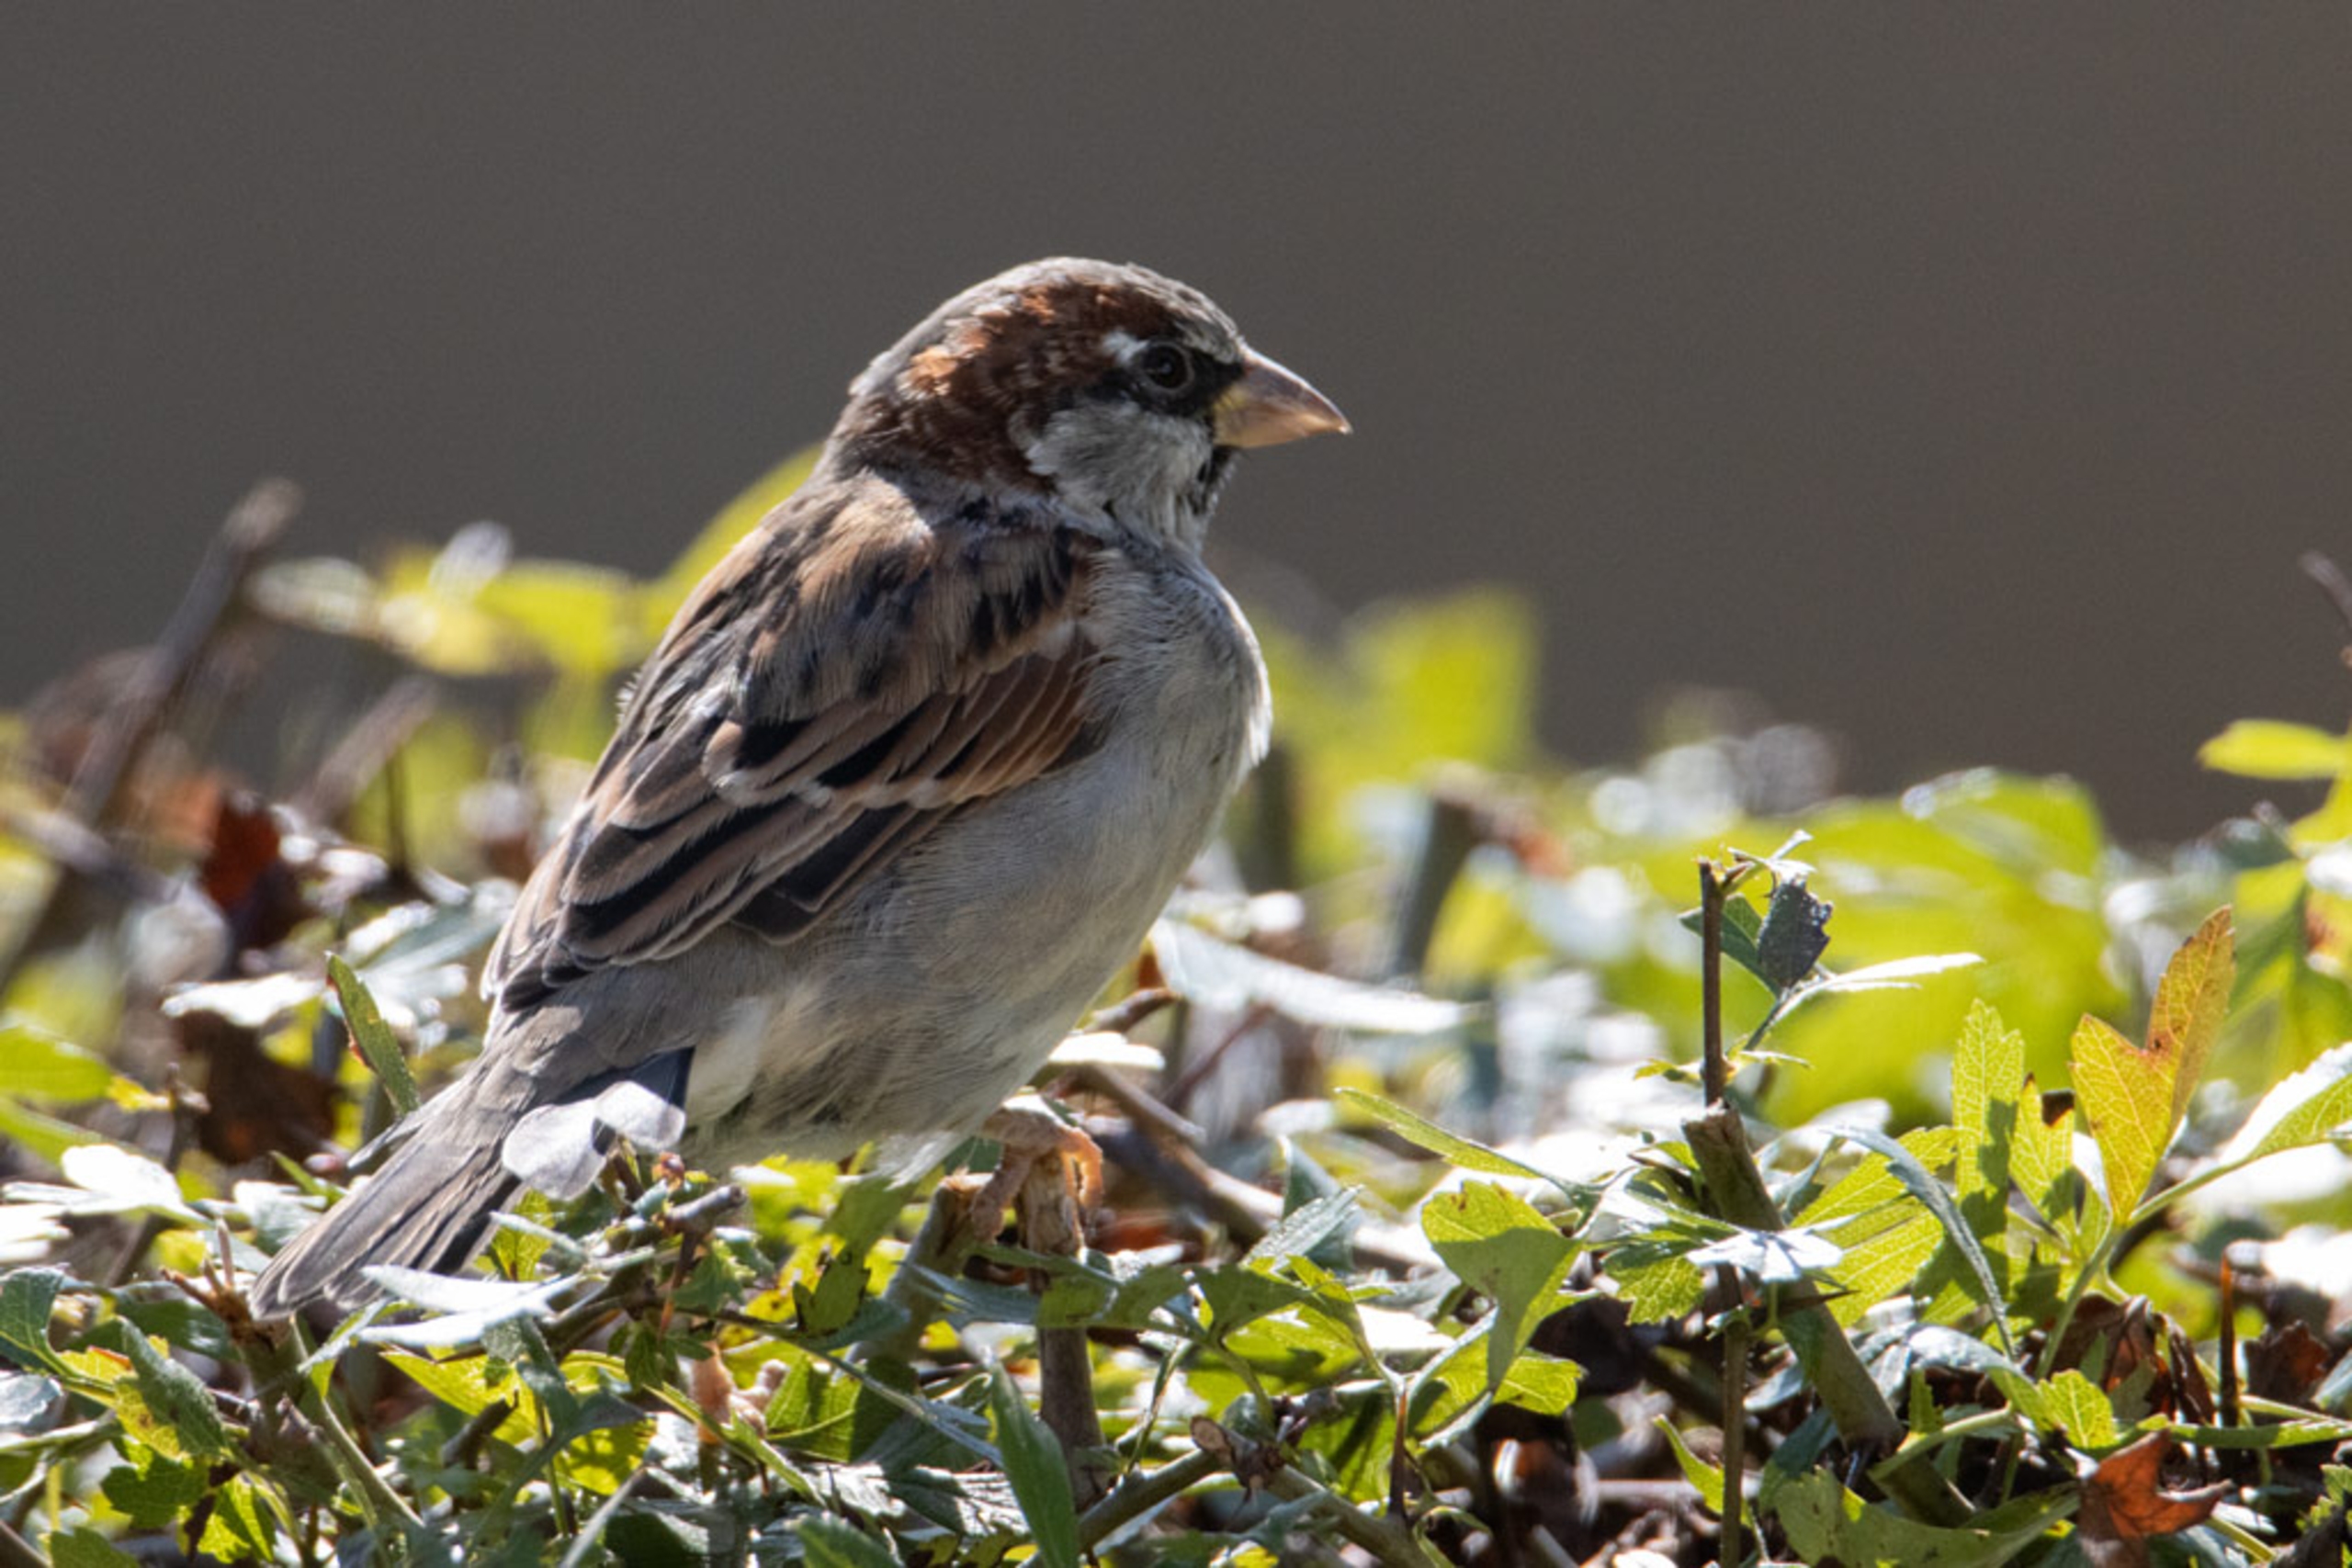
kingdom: Animalia
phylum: Chordata
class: Aves
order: Passeriformes
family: Passeridae
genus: Passer
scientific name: Passer domesticus
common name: Gråspurv
